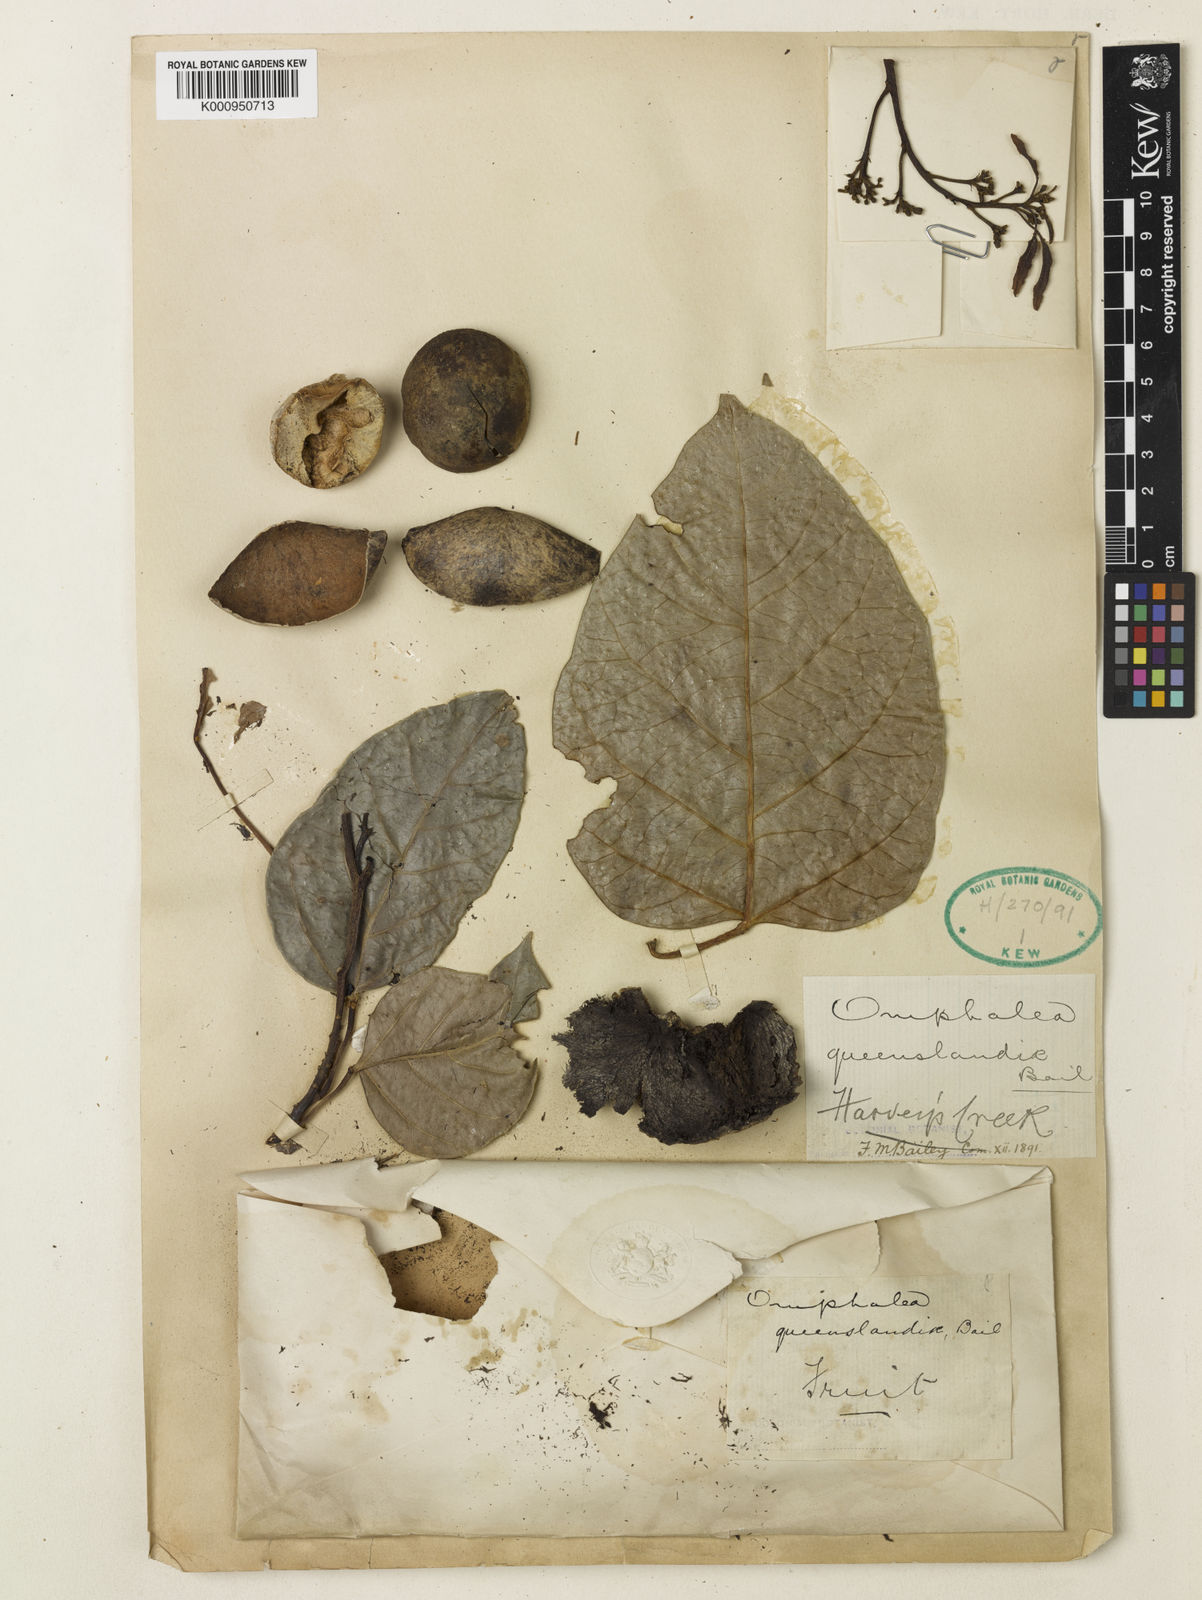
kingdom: Plantae
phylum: Tracheophyta
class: Magnoliopsida
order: Malpighiales
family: Euphorbiaceae
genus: Omphalea
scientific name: Omphalea queenslandiae
